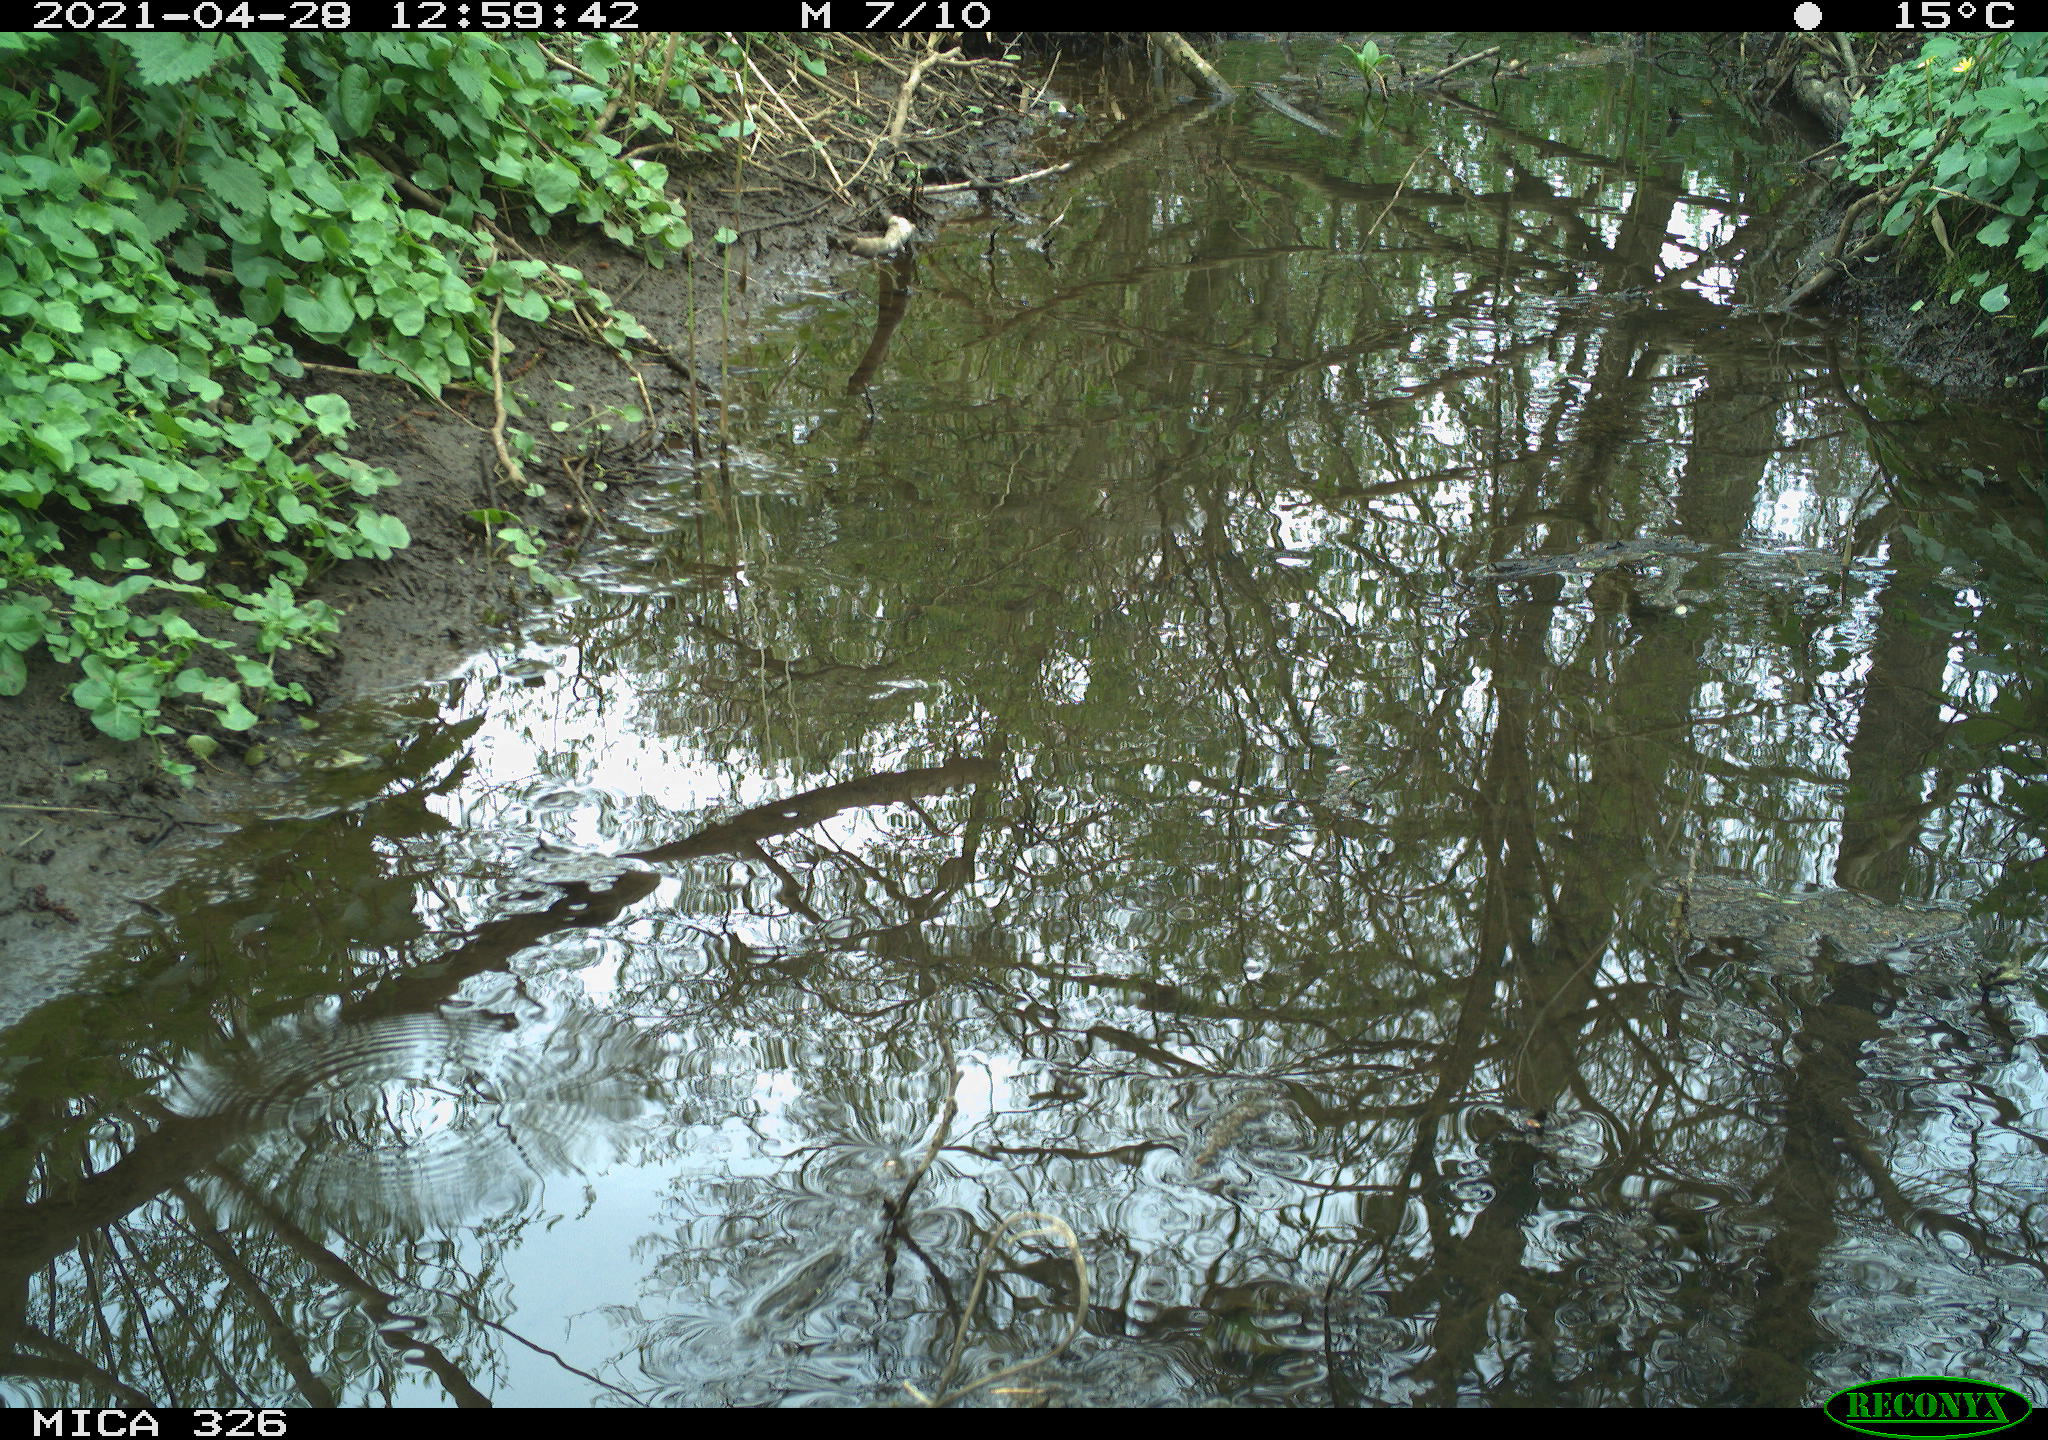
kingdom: Animalia
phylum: Chordata
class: Aves
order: Passeriformes
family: Turdidae
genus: Turdus
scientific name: Turdus merula
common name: Common blackbird
